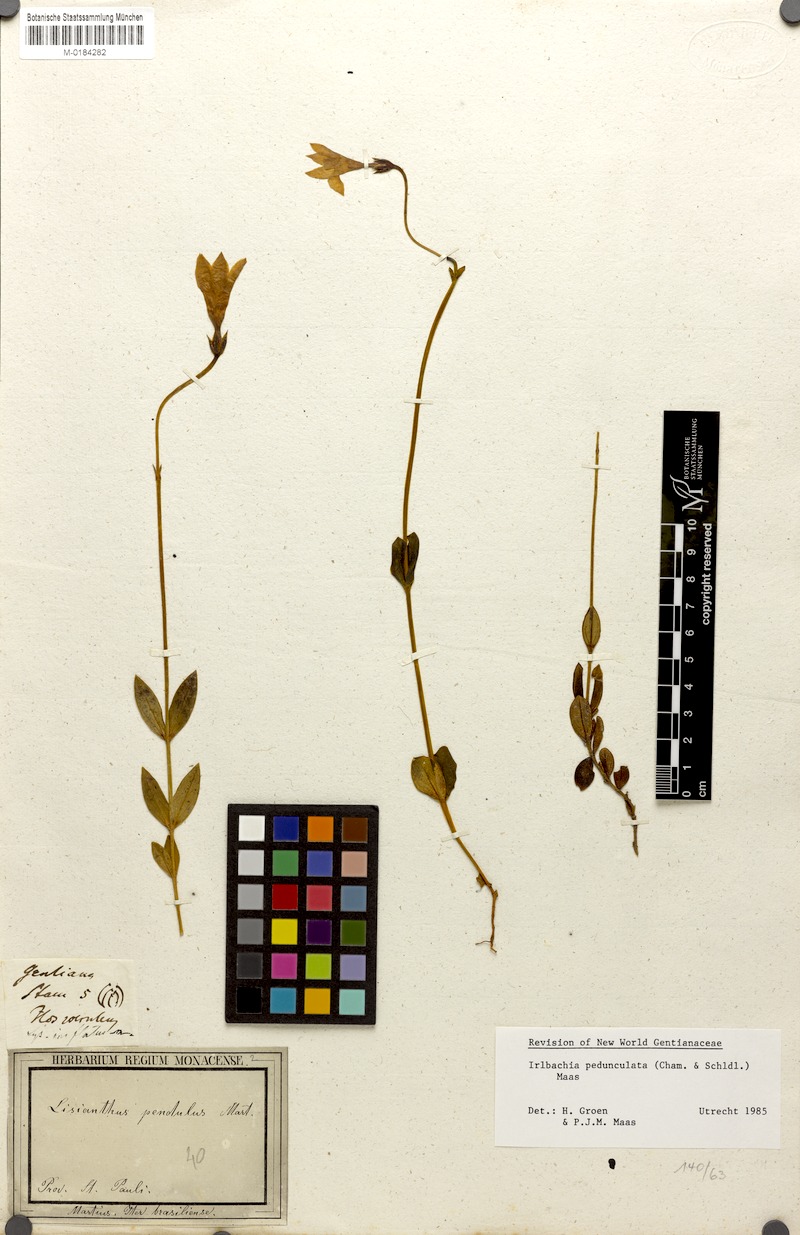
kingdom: Plantae
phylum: Tracheophyta
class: Magnoliopsida
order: Gentianales
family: Gentianaceae
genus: Irlbachia
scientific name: Irlbachia
